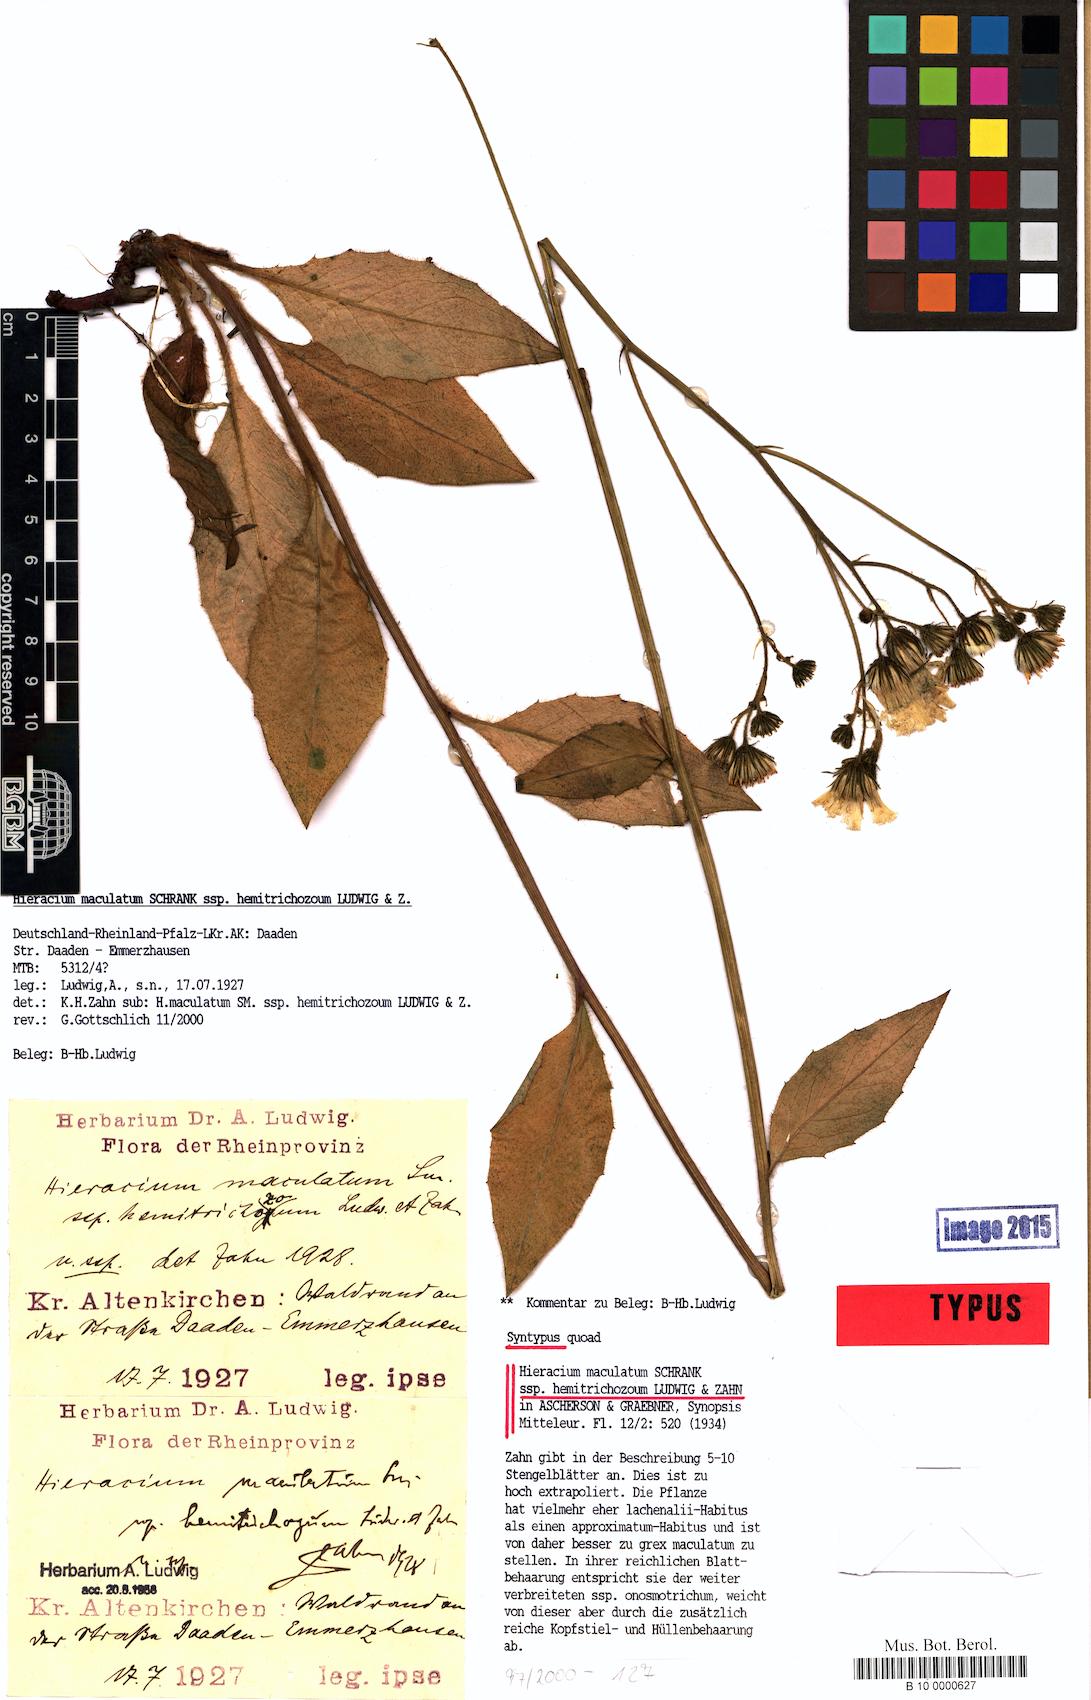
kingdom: Plantae
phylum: Tracheophyta
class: Magnoliopsida
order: Asterales
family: Asteraceae
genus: Hieracium
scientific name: Hieracium maculatum
